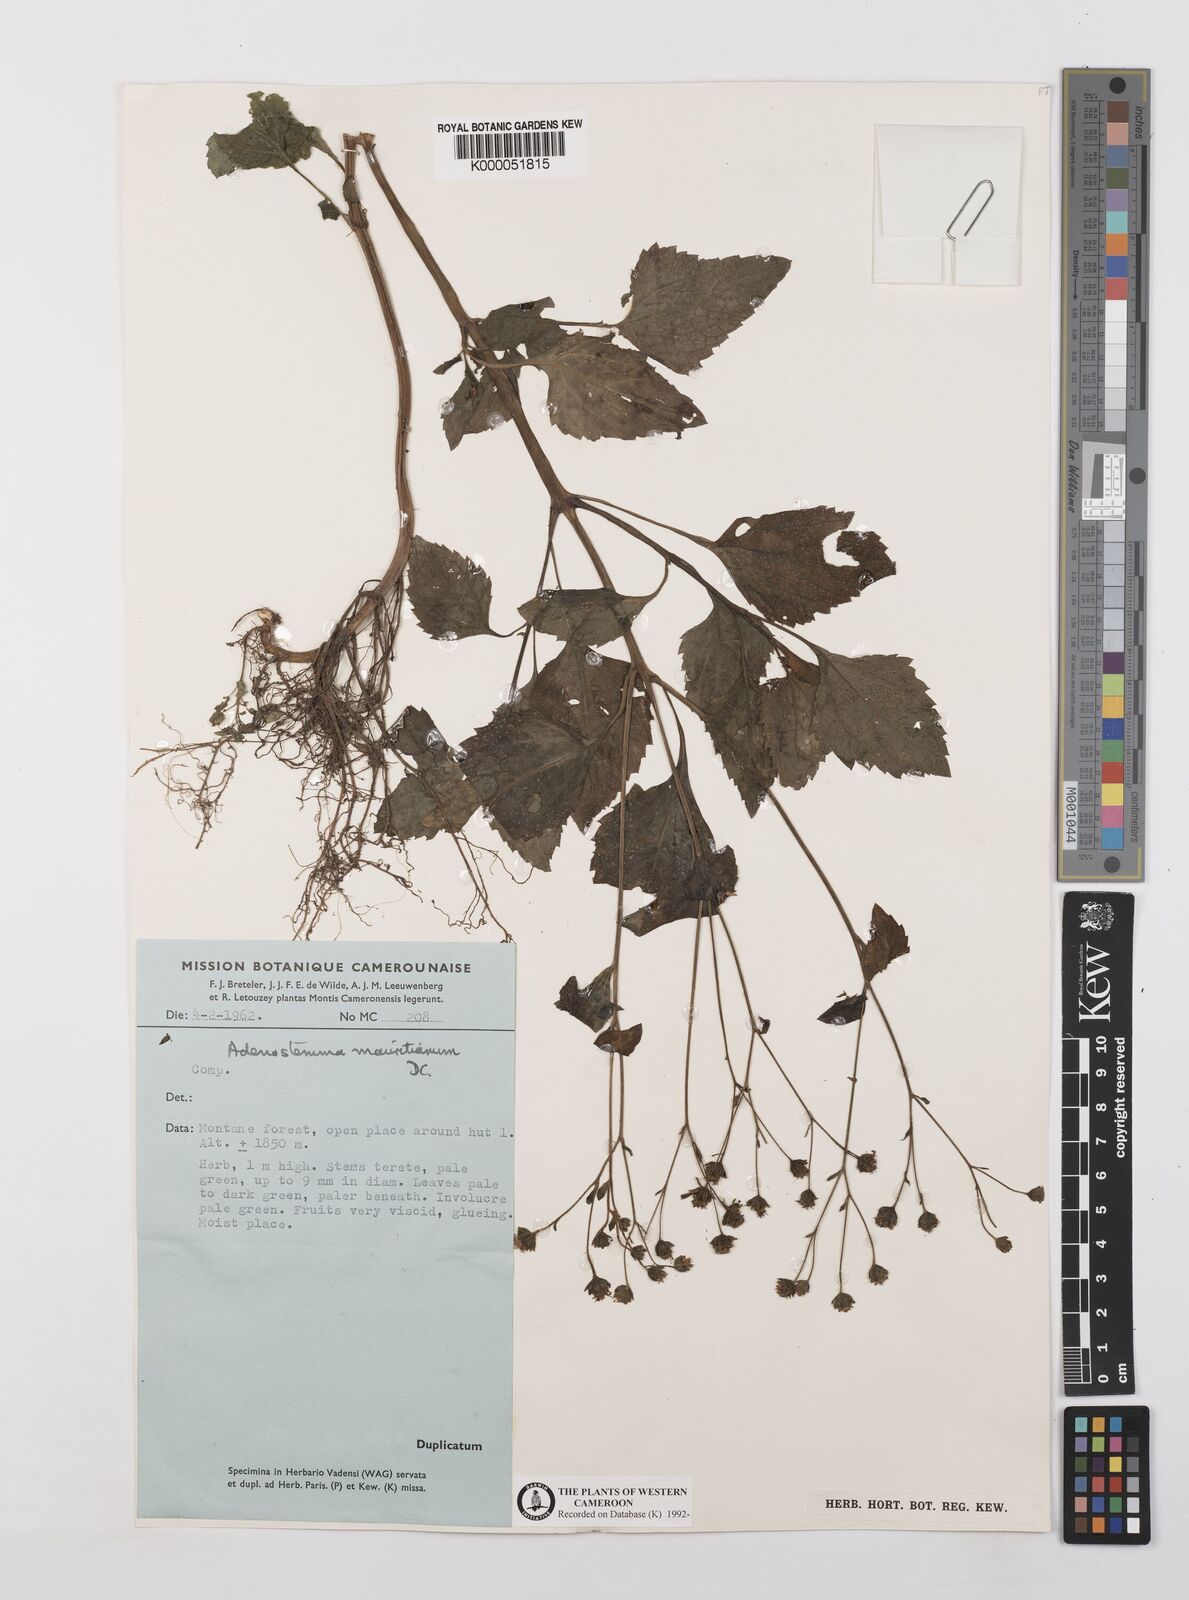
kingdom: Plantae
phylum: Tracheophyta
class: Magnoliopsida
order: Asterales
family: Asteraceae
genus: Adenostemma
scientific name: Adenostemma mauritianum
